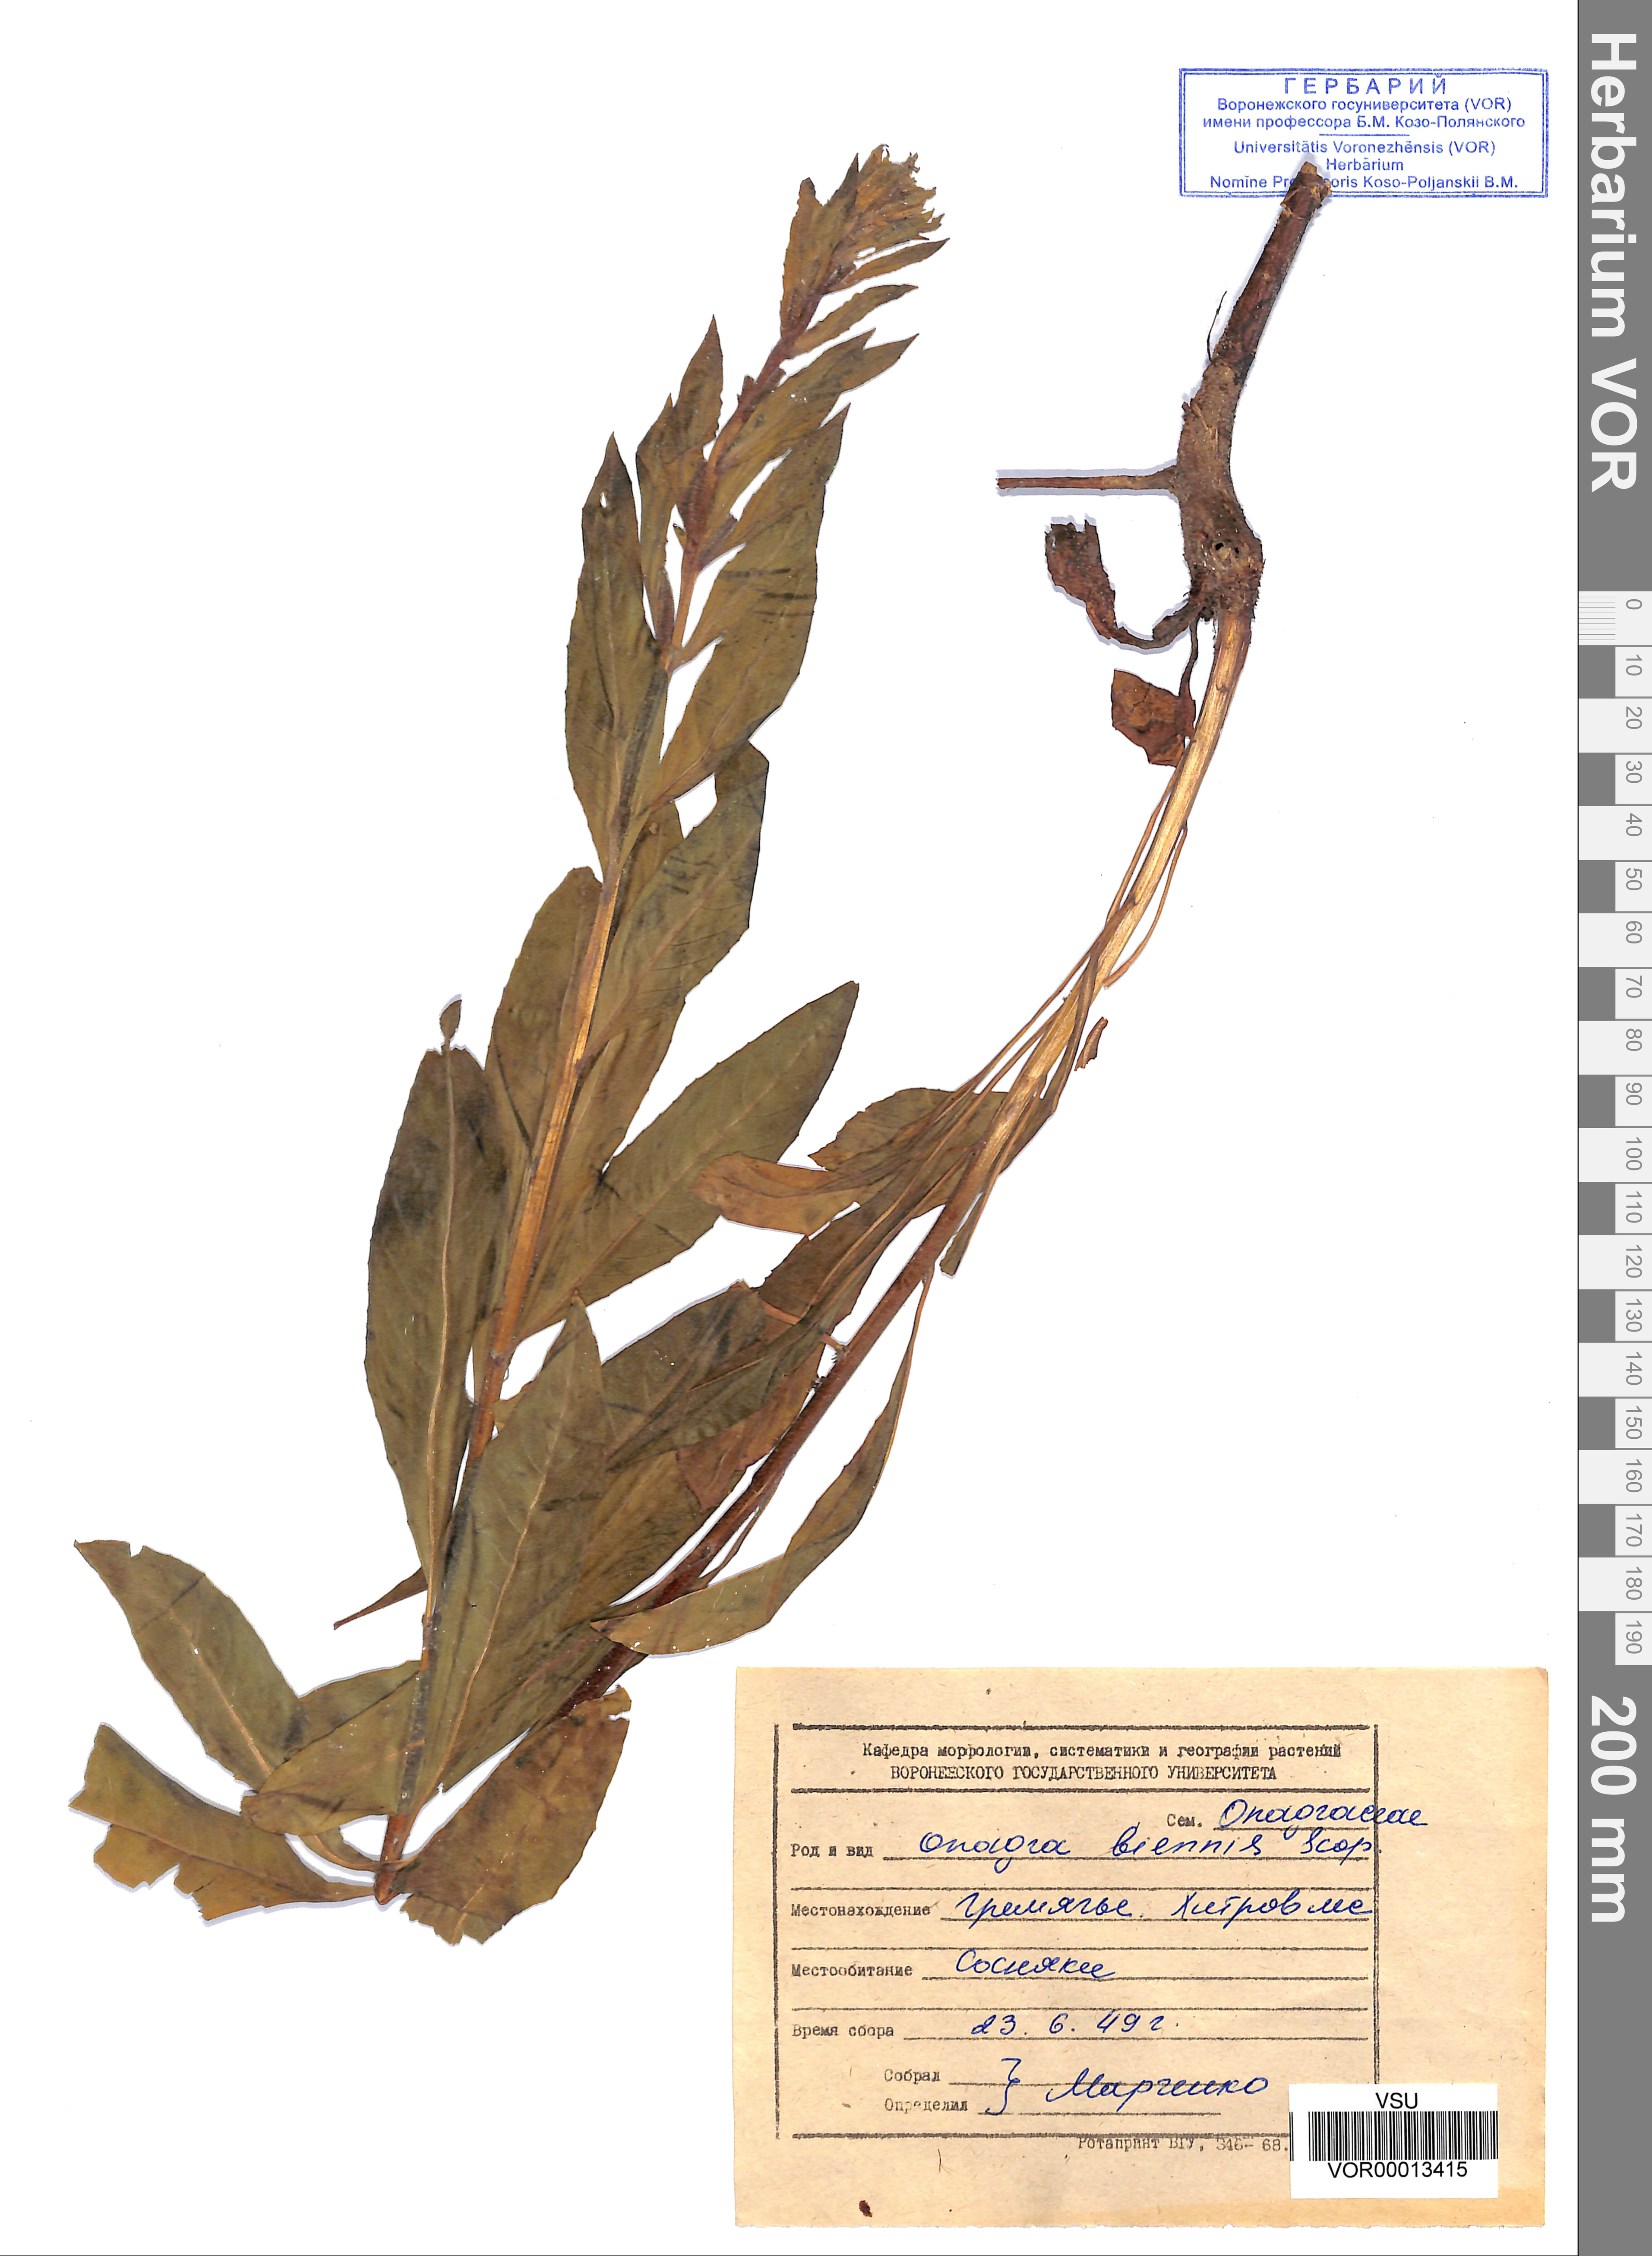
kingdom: Plantae
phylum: Tracheophyta
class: Magnoliopsida
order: Myrtales
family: Onagraceae
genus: Oenothera
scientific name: Oenothera biennis
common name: Common evening-primrose
